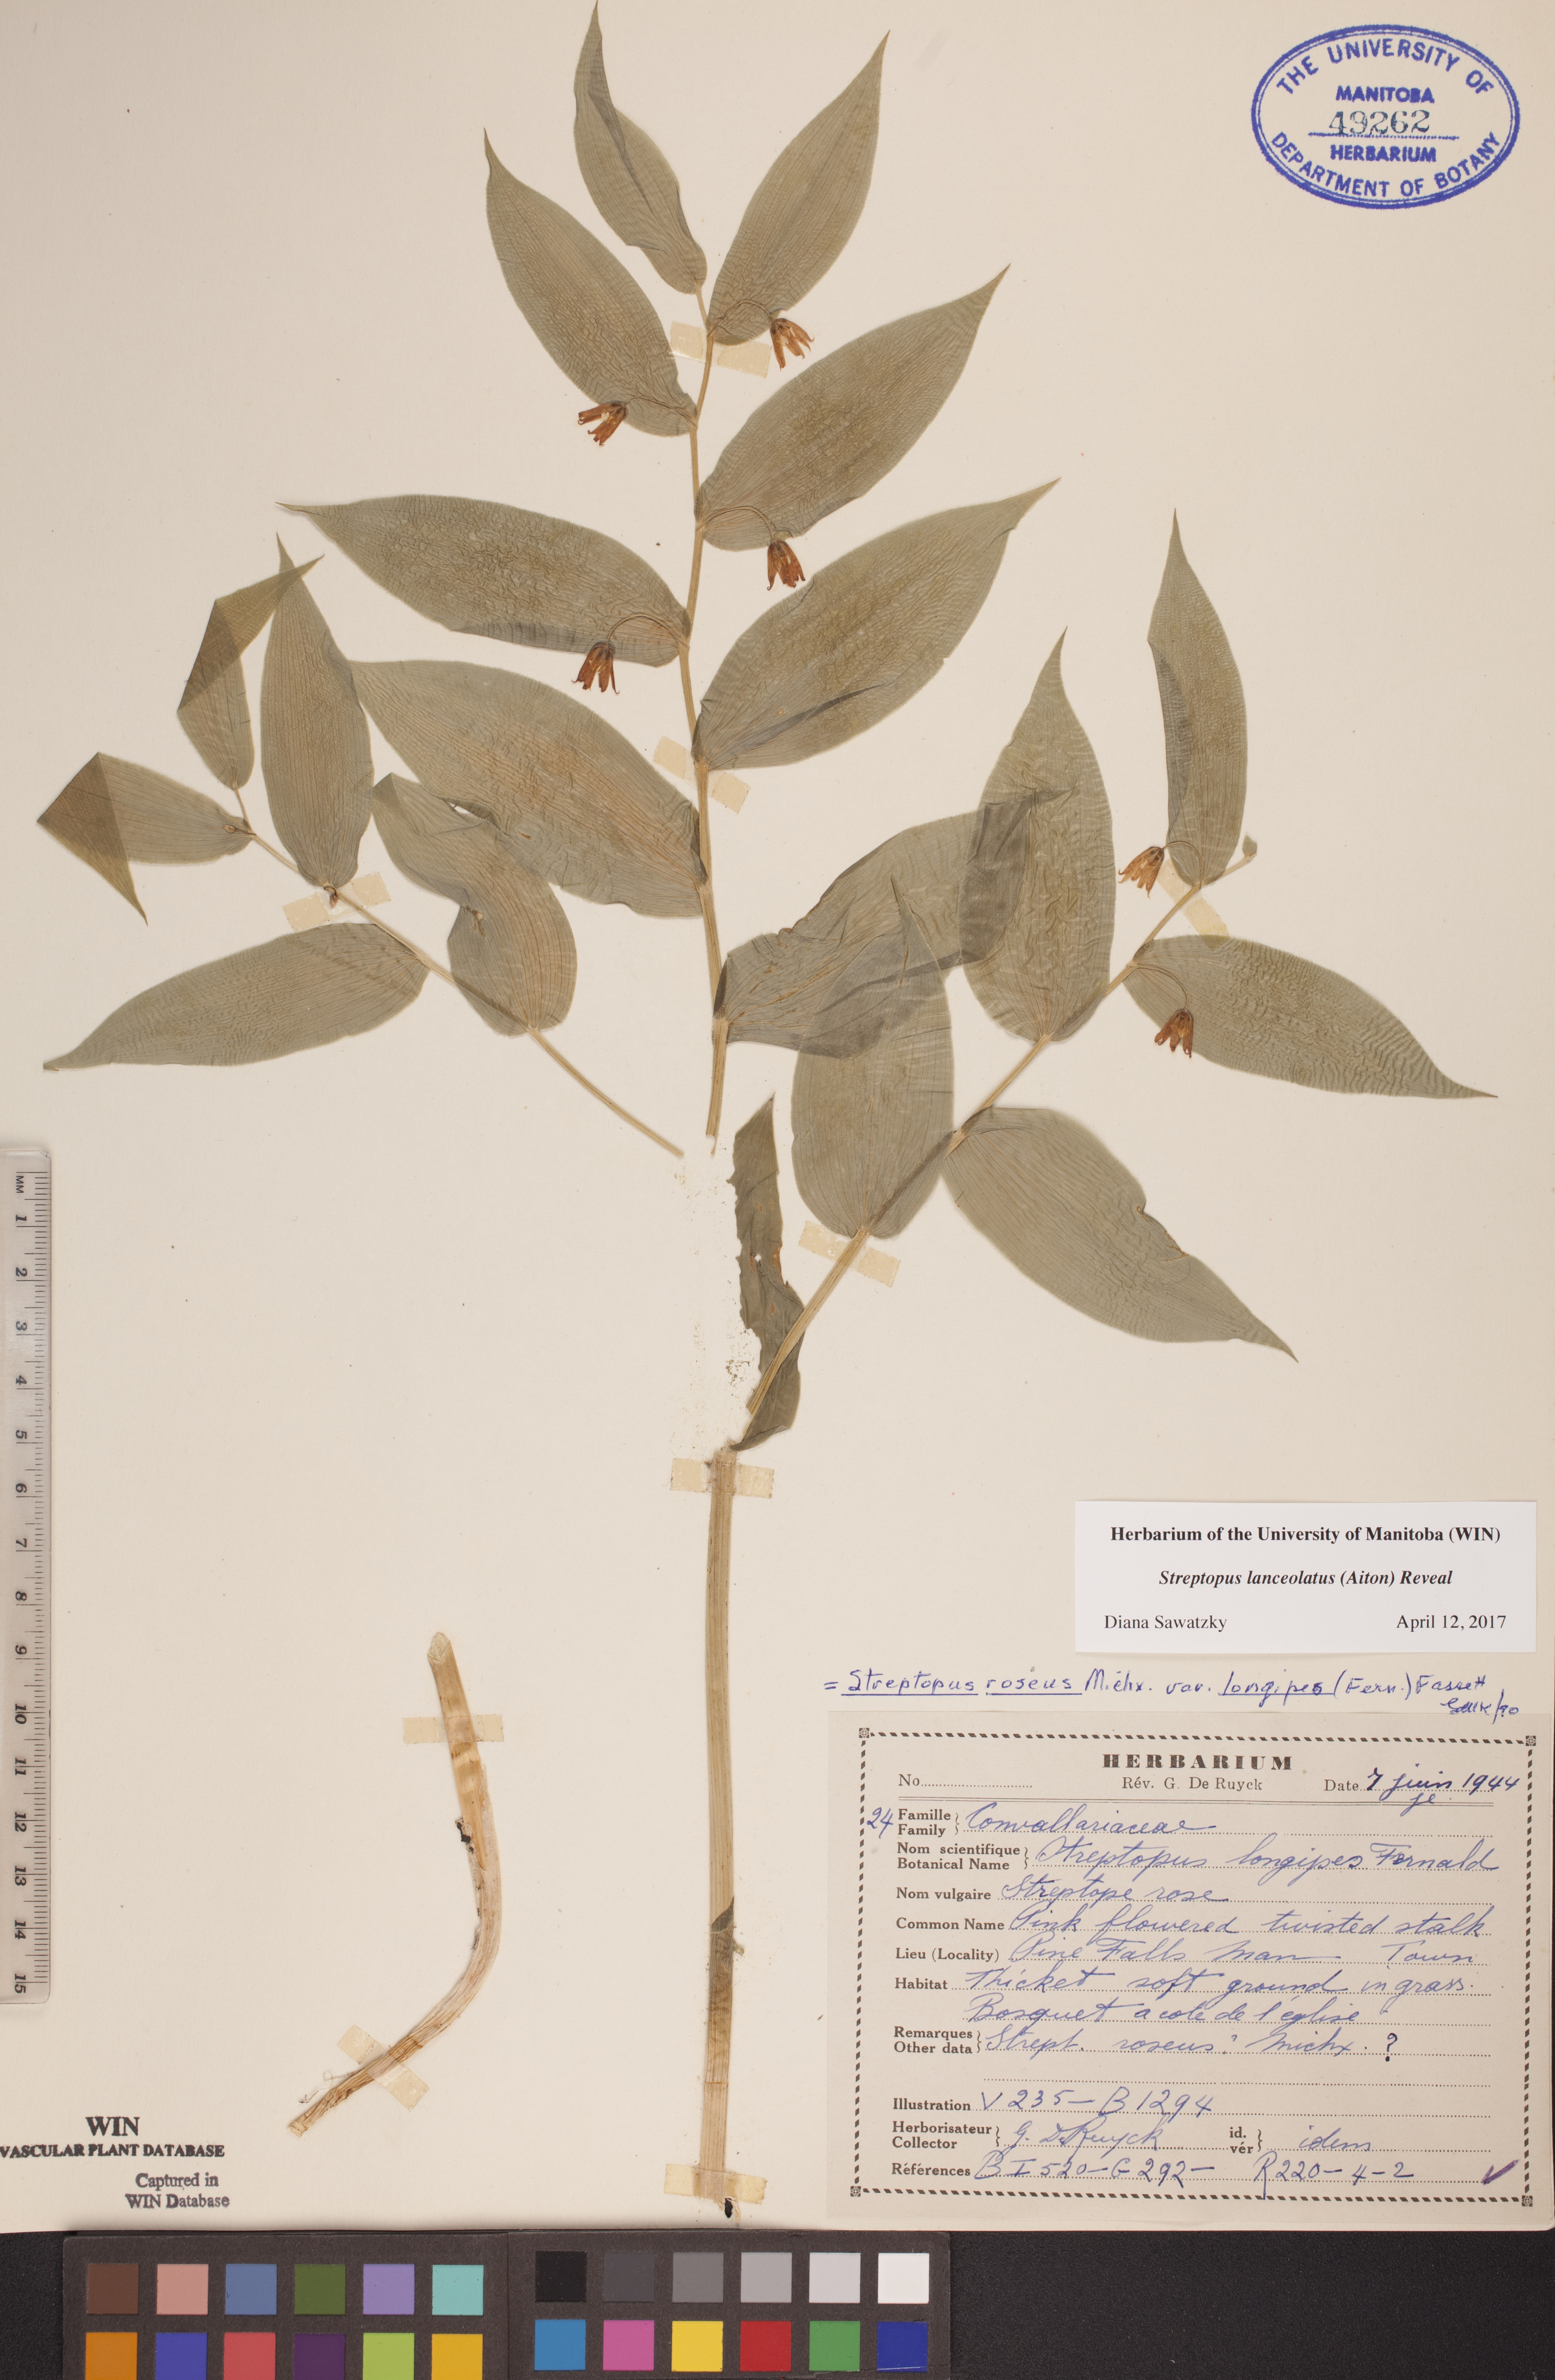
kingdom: Plantae
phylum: Tracheophyta
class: Liliopsida
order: Liliales
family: Liliaceae
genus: Streptopus
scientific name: Streptopus lanceolatus
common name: Rose mandarin
